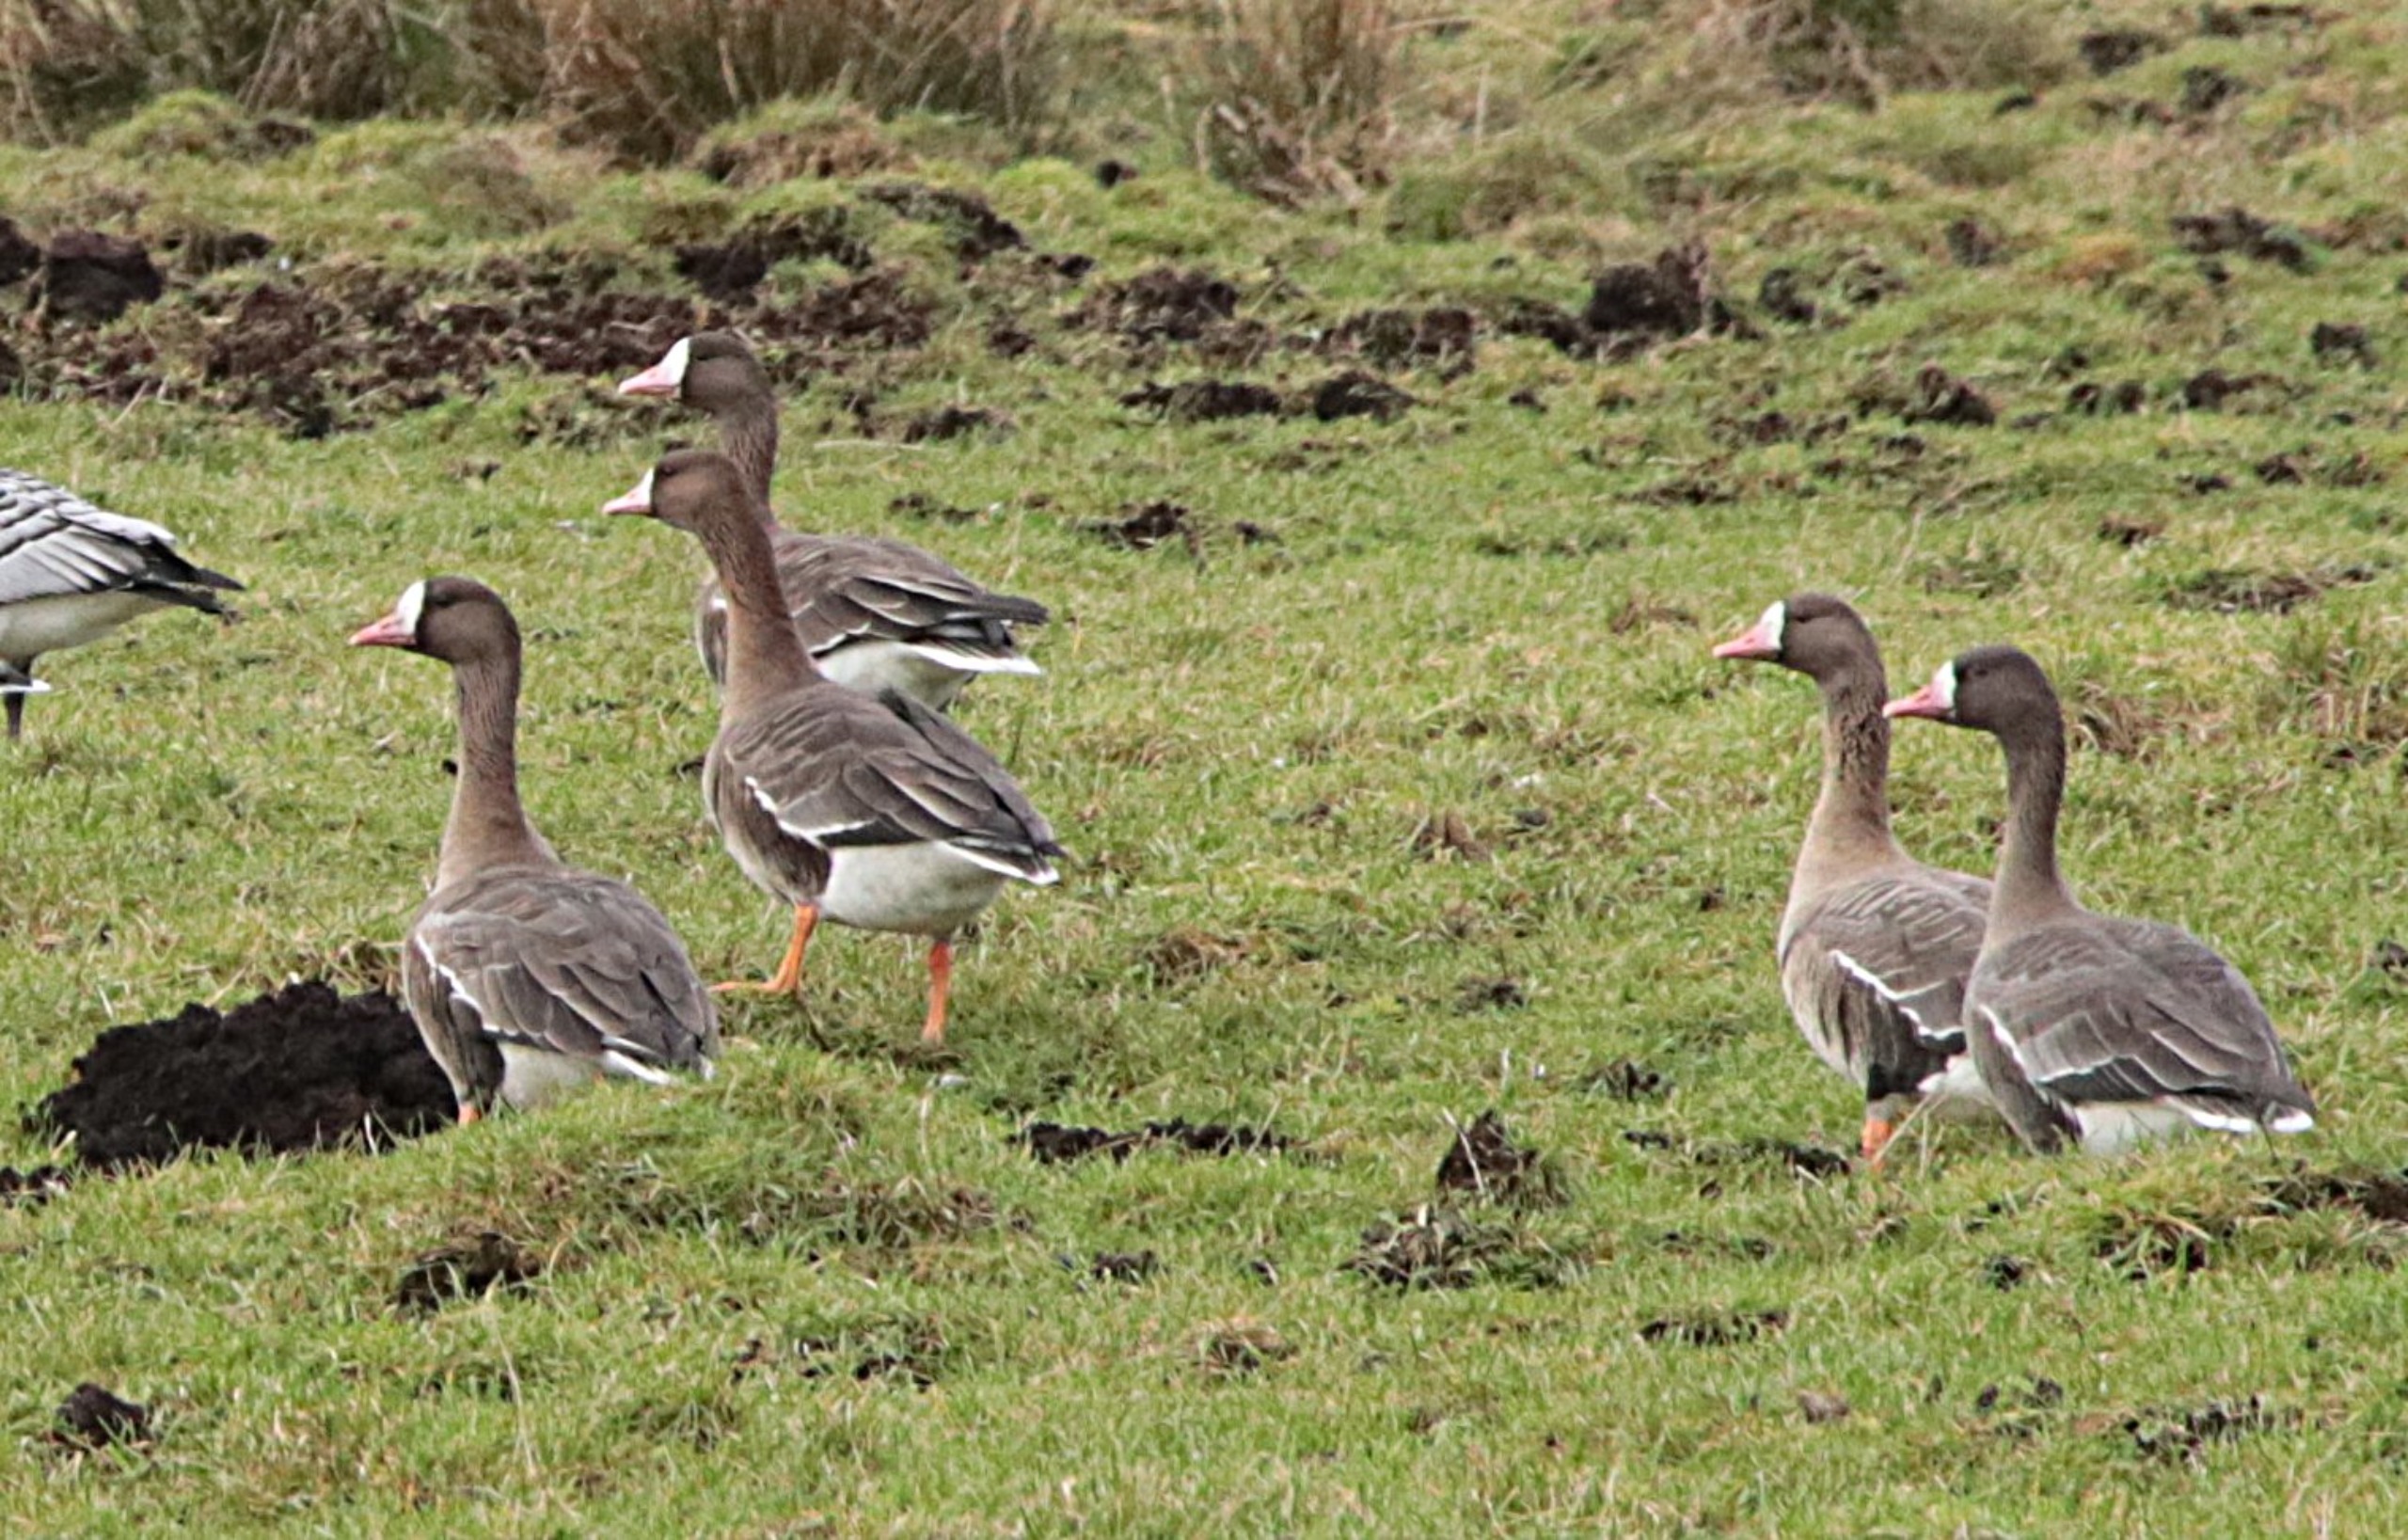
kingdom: Animalia
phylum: Chordata
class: Aves
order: Anseriformes
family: Anatidae
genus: Anser
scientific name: Anser albifrons
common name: Blisgås
